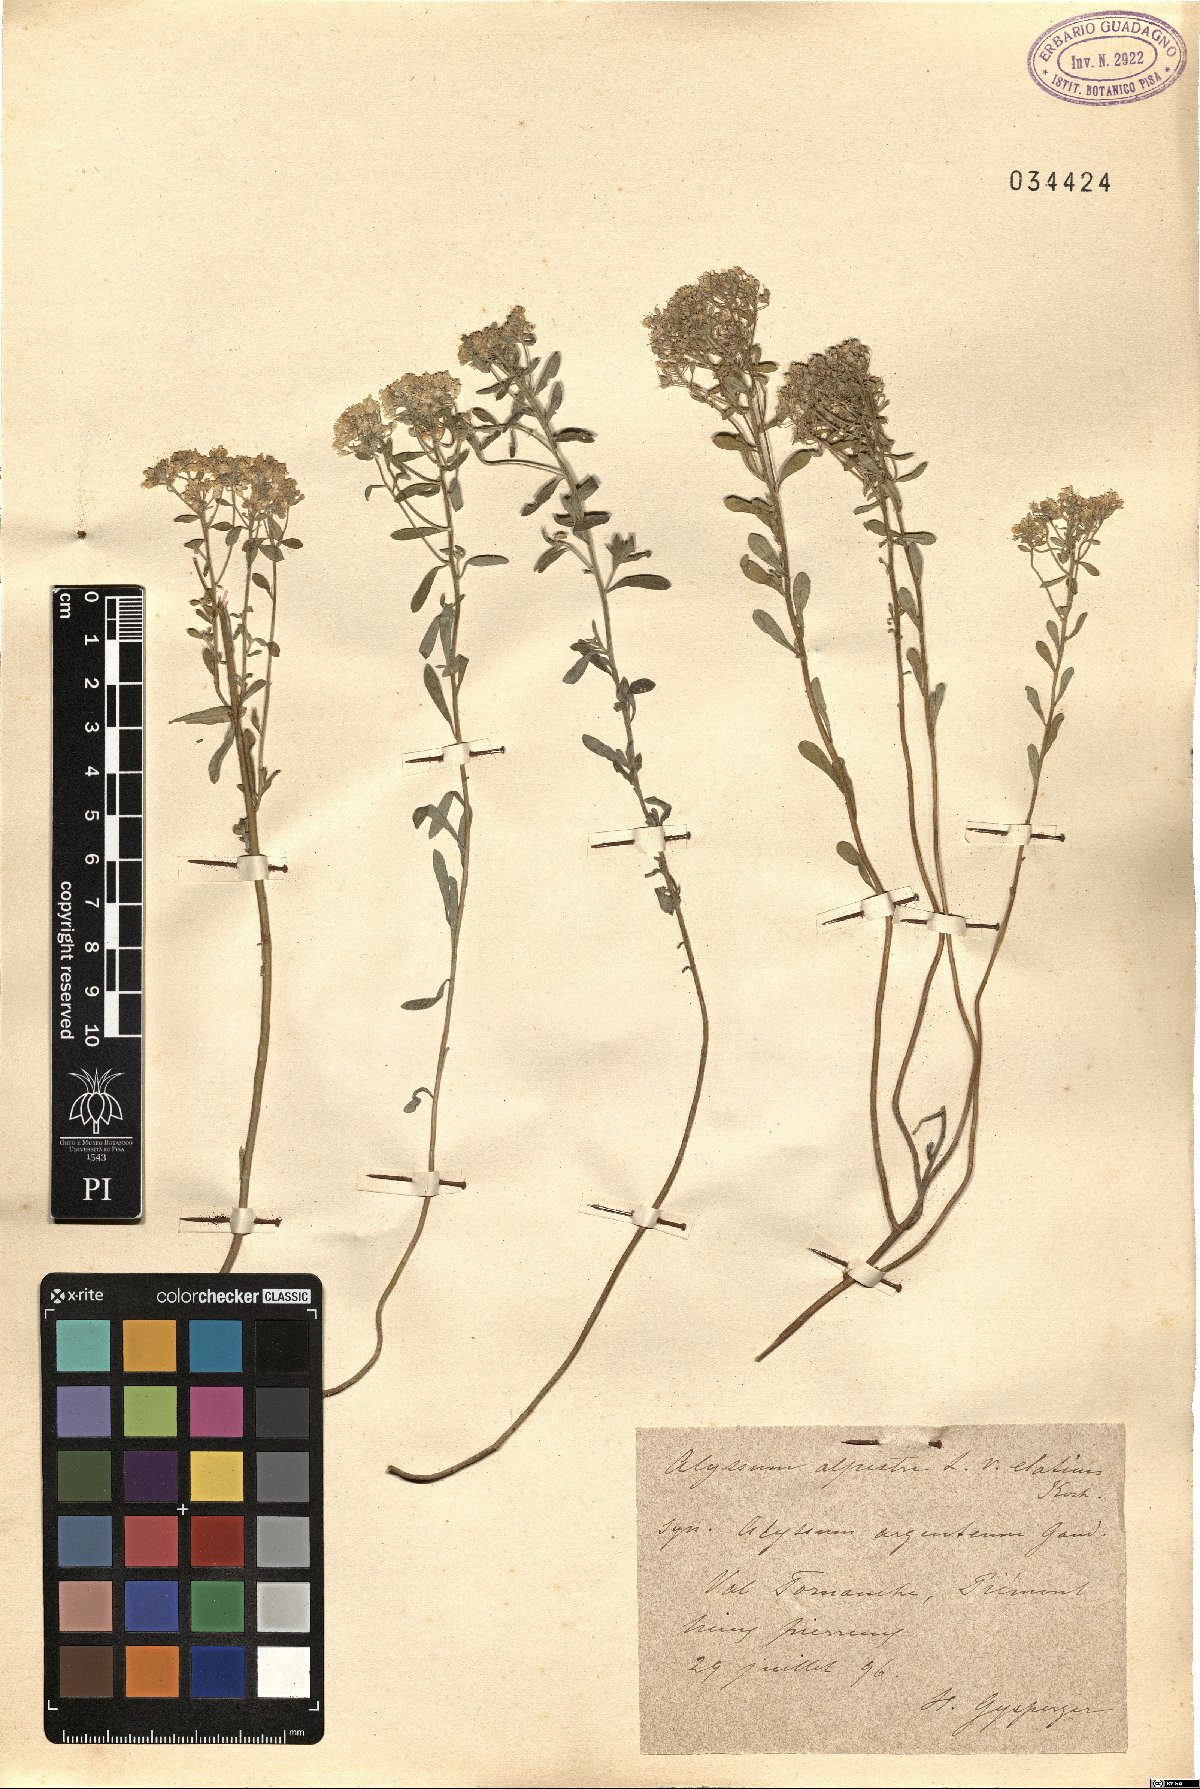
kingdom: Plantae
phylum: Tracheophyta
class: Magnoliopsida
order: Brassicales
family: Brassicaceae
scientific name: Brassicaceae
